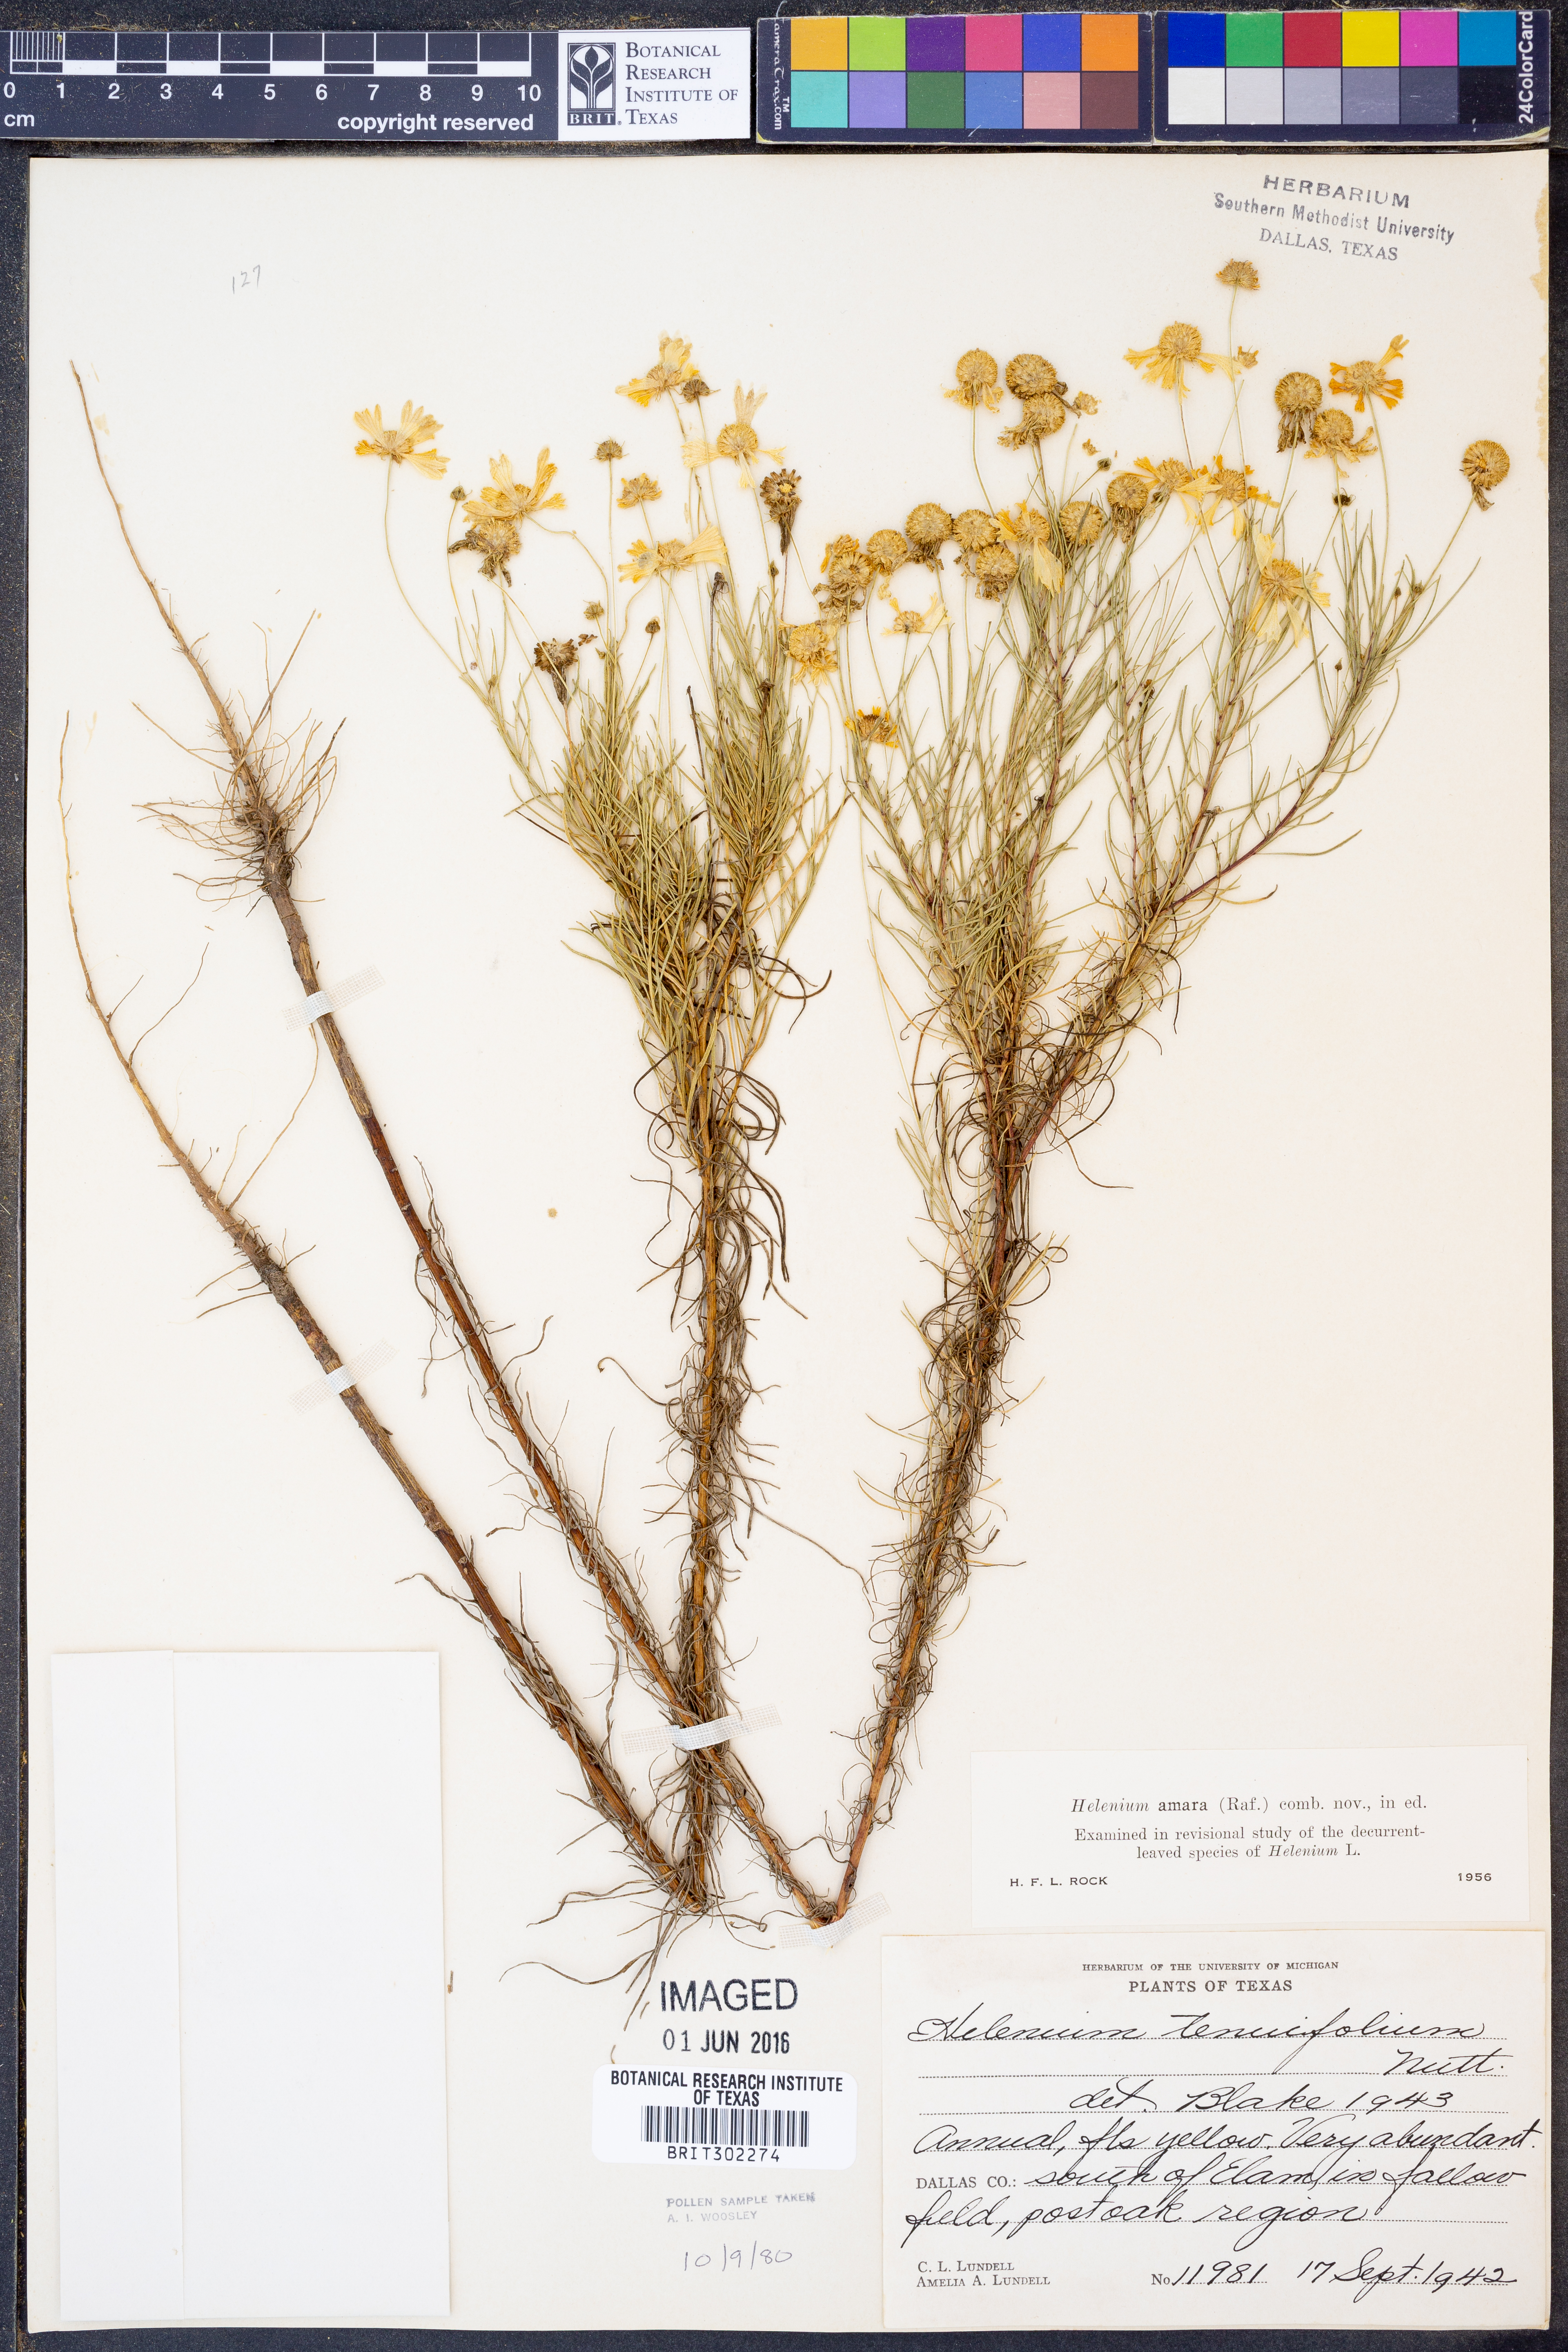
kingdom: Plantae
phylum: Tracheophyta
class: Magnoliopsida
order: Asterales
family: Asteraceae
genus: Helenium
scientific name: Helenium amarum
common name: Bitter sneezeweed
